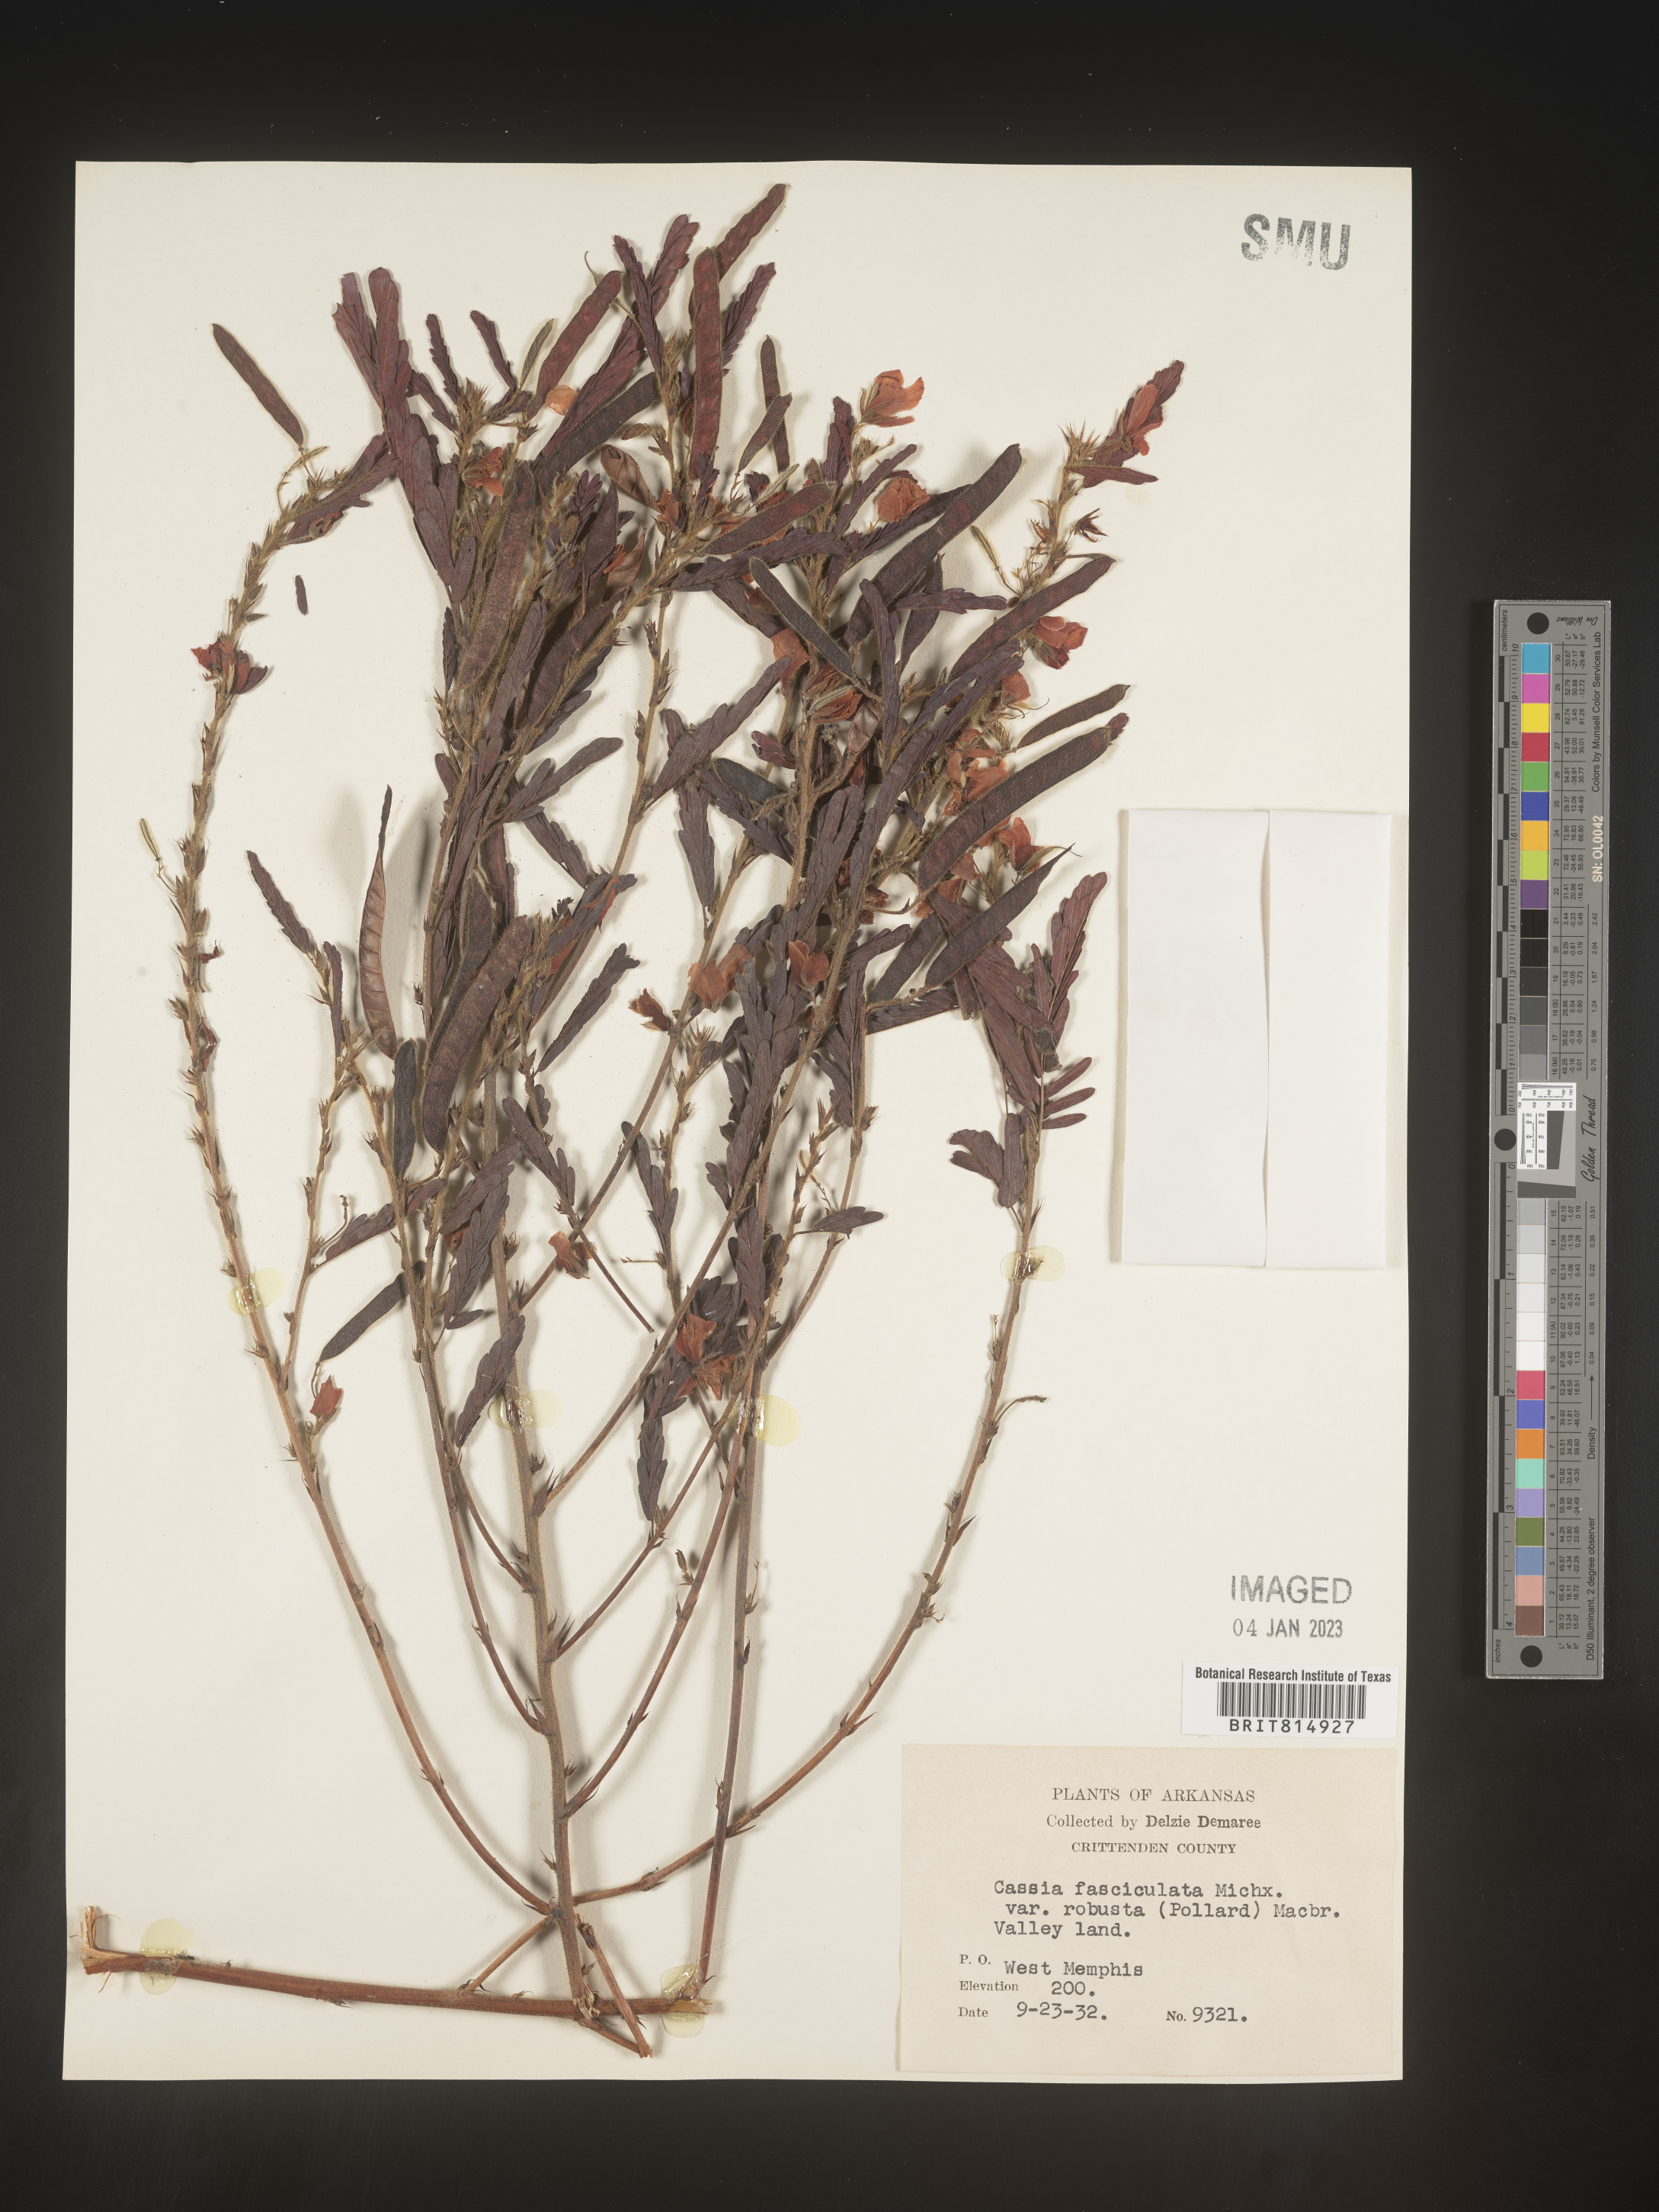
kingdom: Plantae
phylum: Tracheophyta
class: Magnoliopsida
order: Fabales
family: Fabaceae
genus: Chamaecrista
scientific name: Chamaecrista fasciculata
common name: Golden cassia
